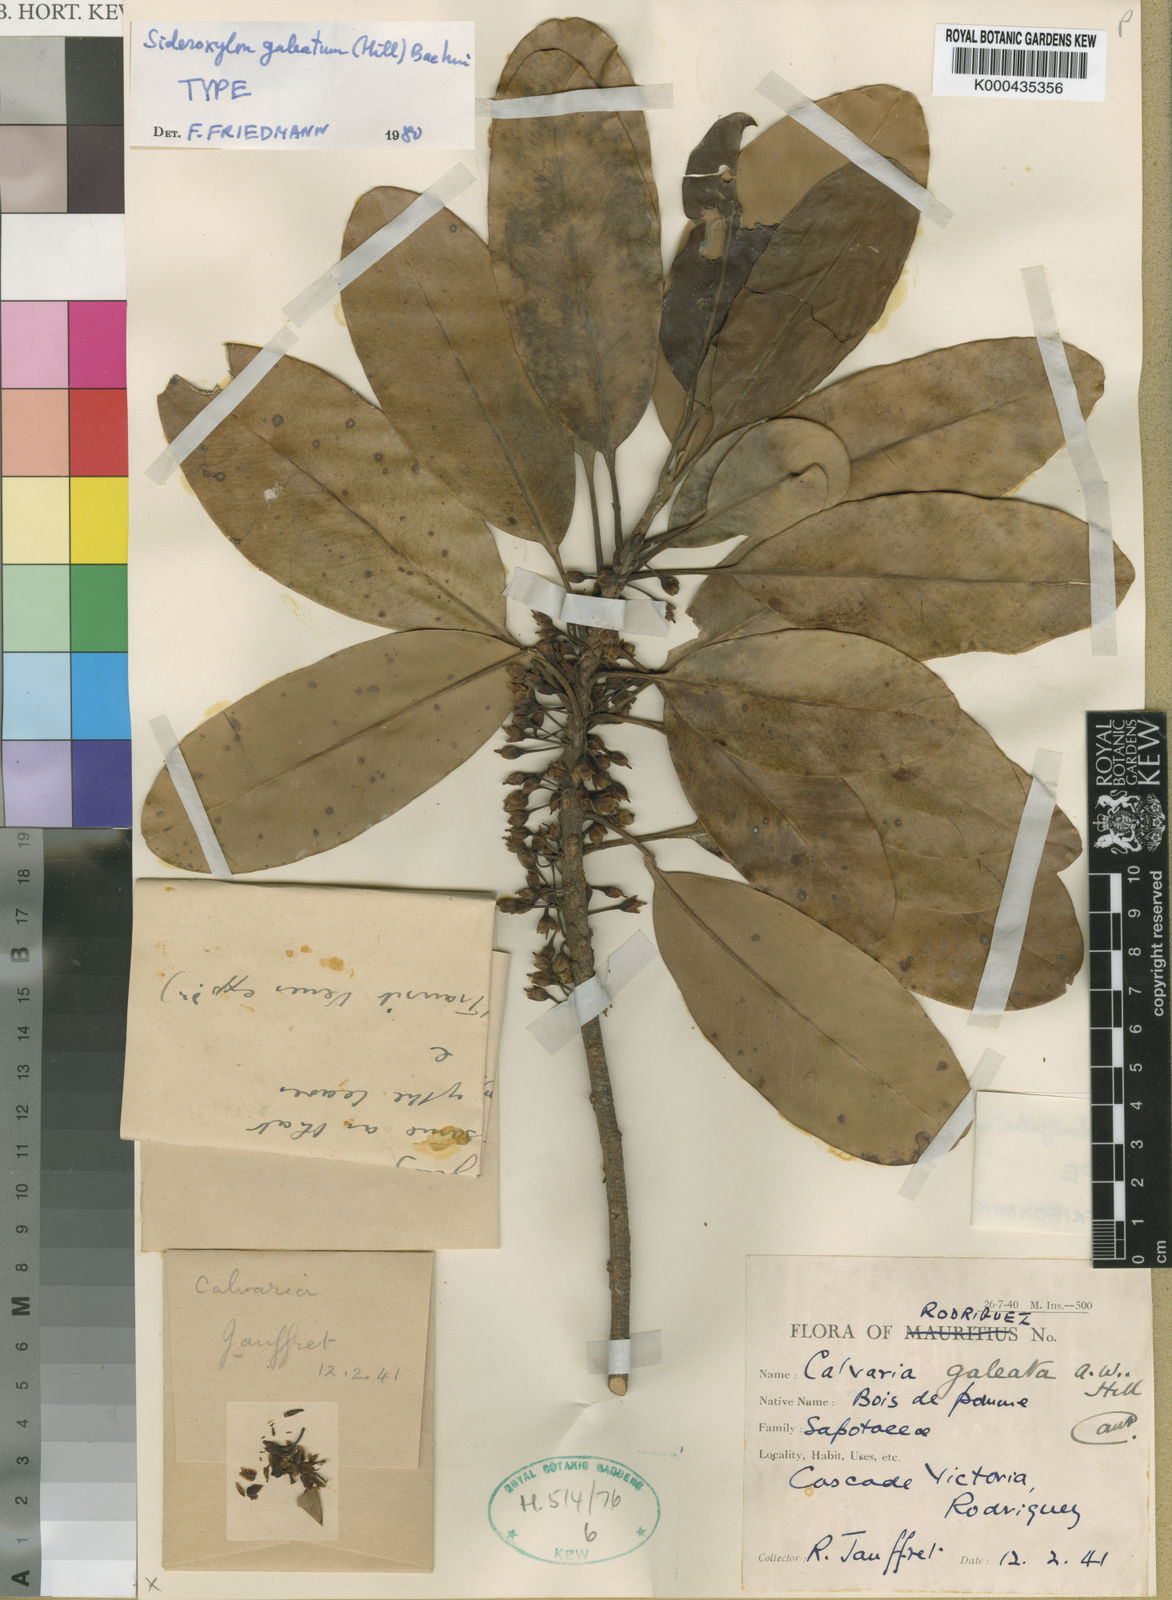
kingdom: Plantae
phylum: Tracheophyta
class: Magnoliopsida
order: Ericales
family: Sapotaceae
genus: Sideroxylon
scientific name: Sideroxylon galeatum
